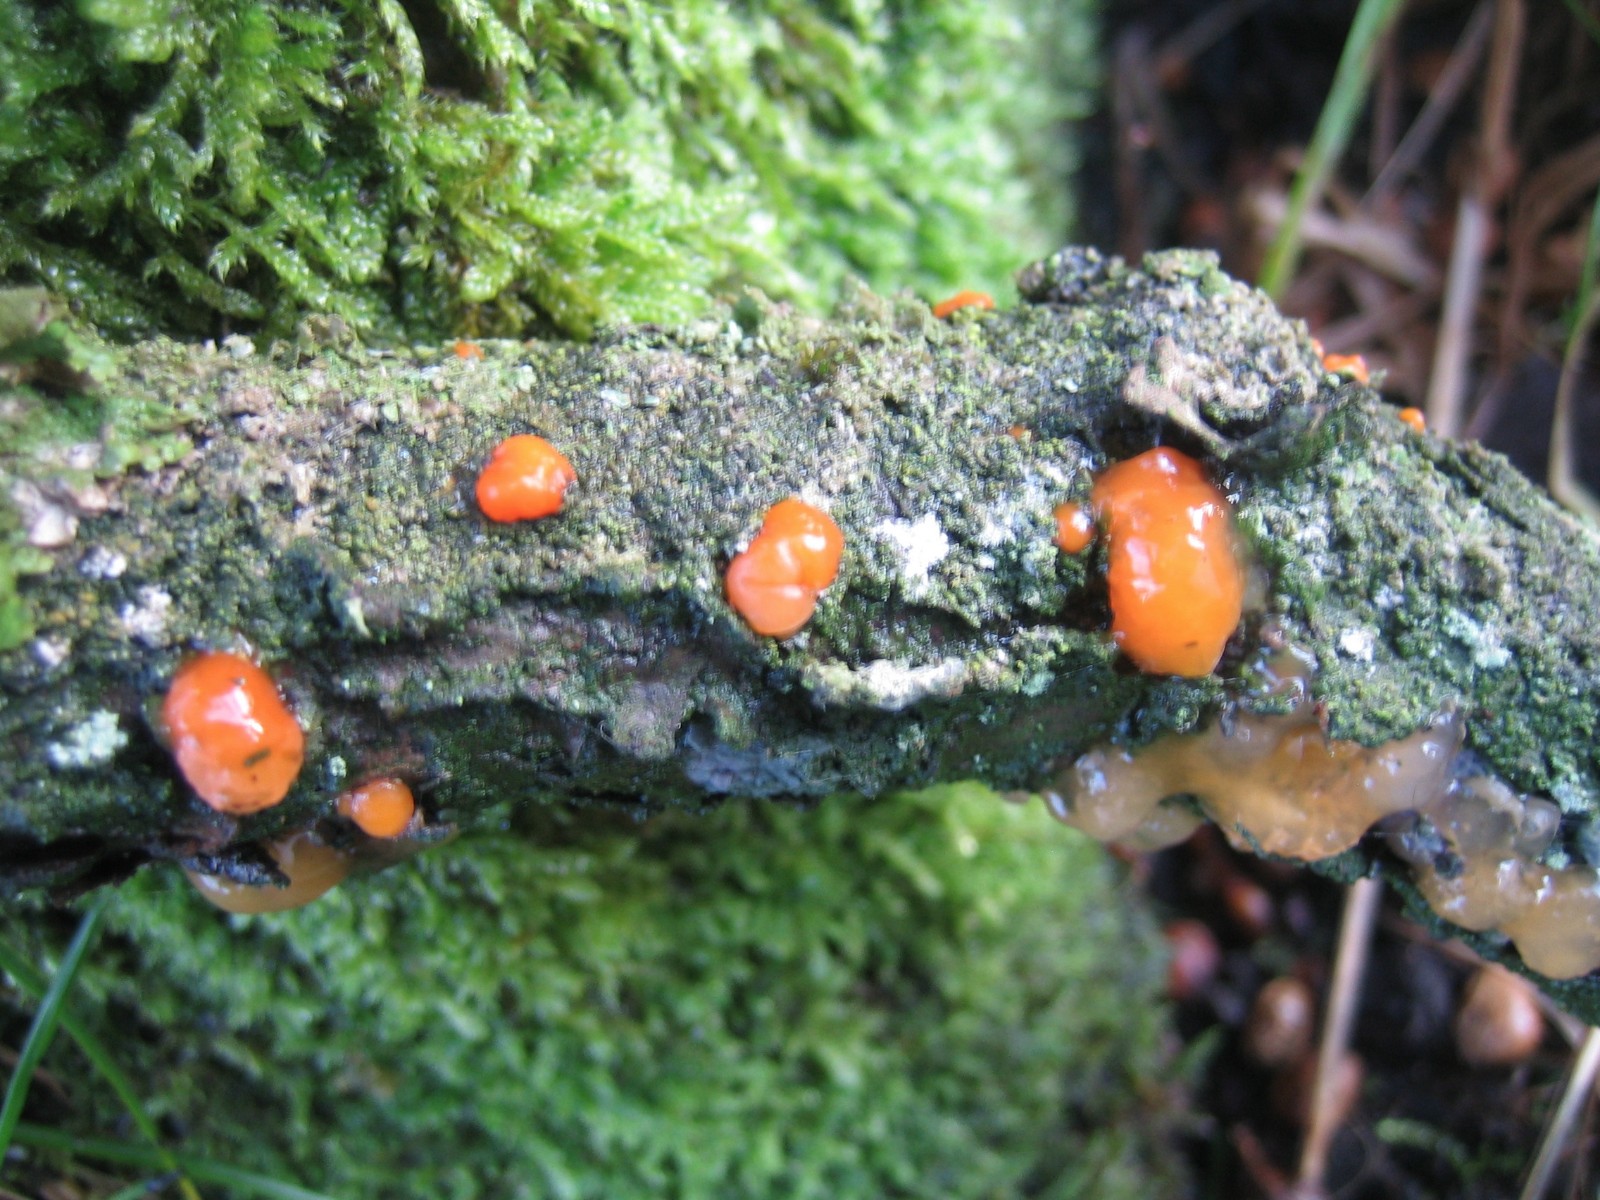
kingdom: Fungi
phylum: Basidiomycota
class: Dacrymycetes
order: Dacrymycetales
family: Dacrymycetaceae
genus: Dacrymyces
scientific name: Dacrymyces stillatus
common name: almindelig tåresvamp
